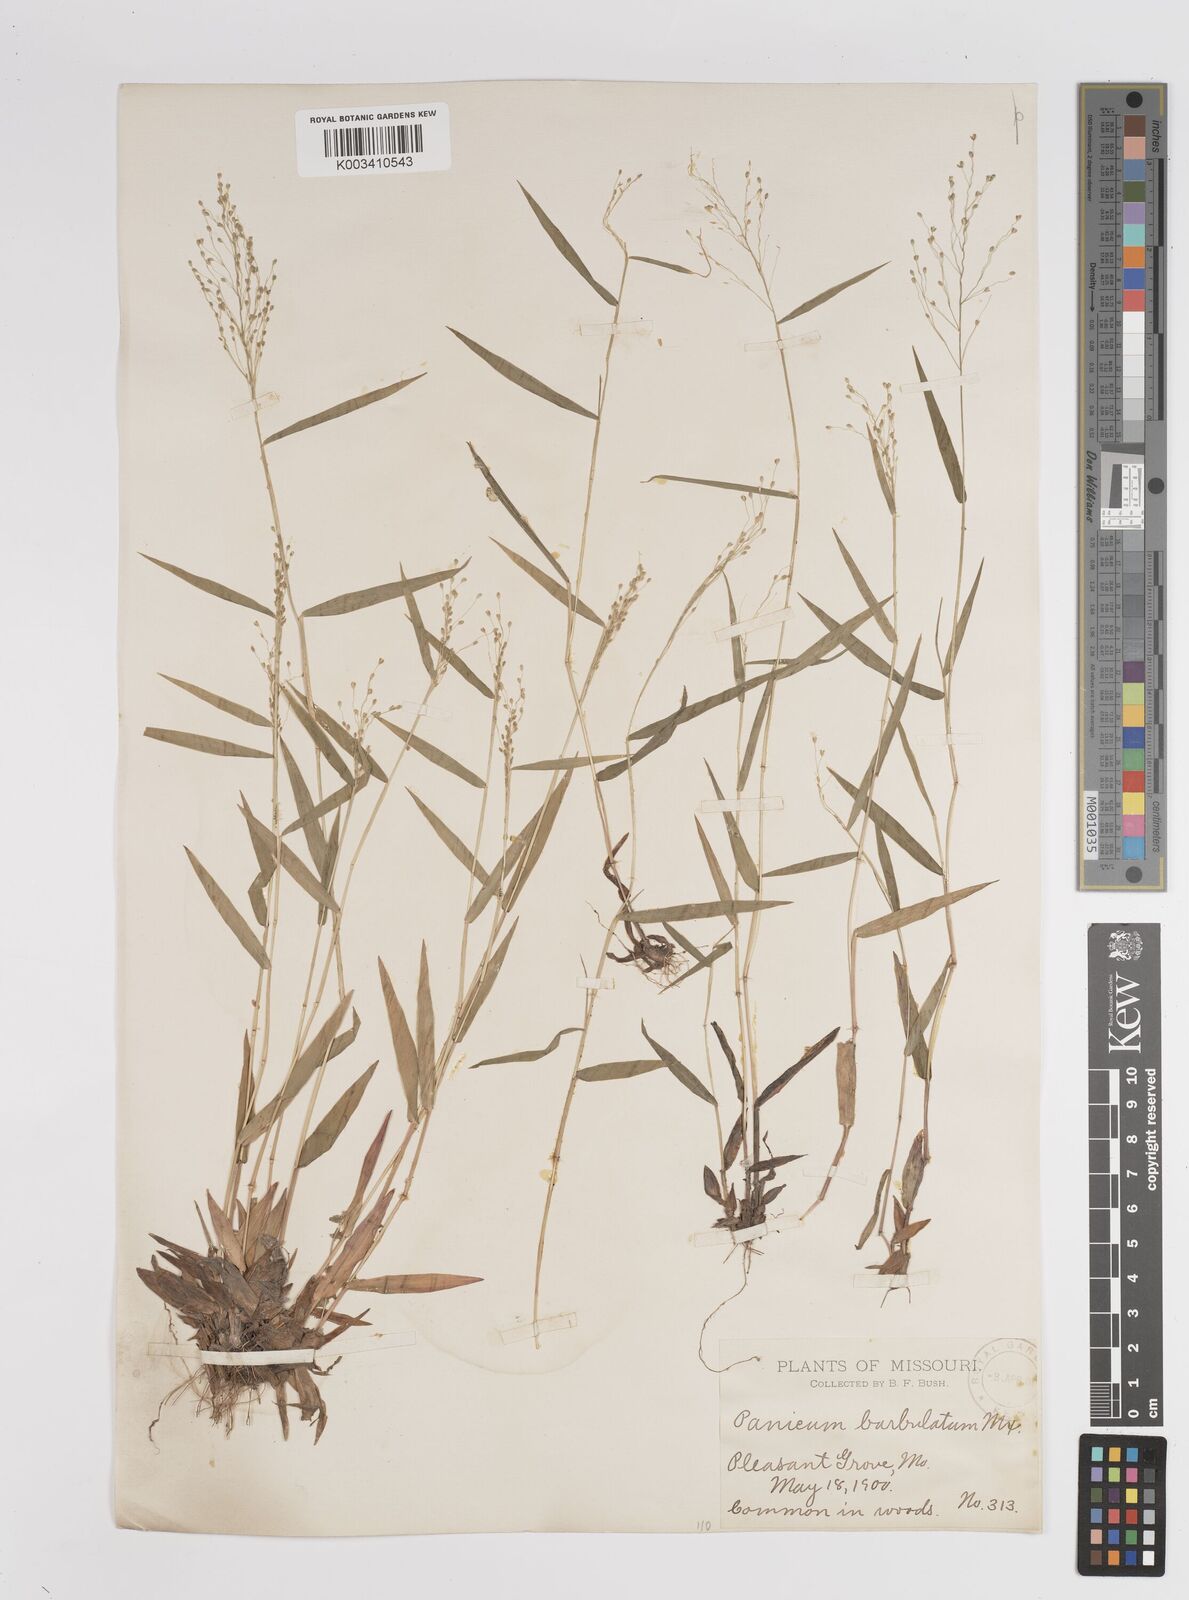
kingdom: Plantae
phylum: Tracheophyta
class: Liliopsida
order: Poales
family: Poaceae
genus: Dichanthelium
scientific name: Dichanthelium dichotomum
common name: Cypress panicgrass
